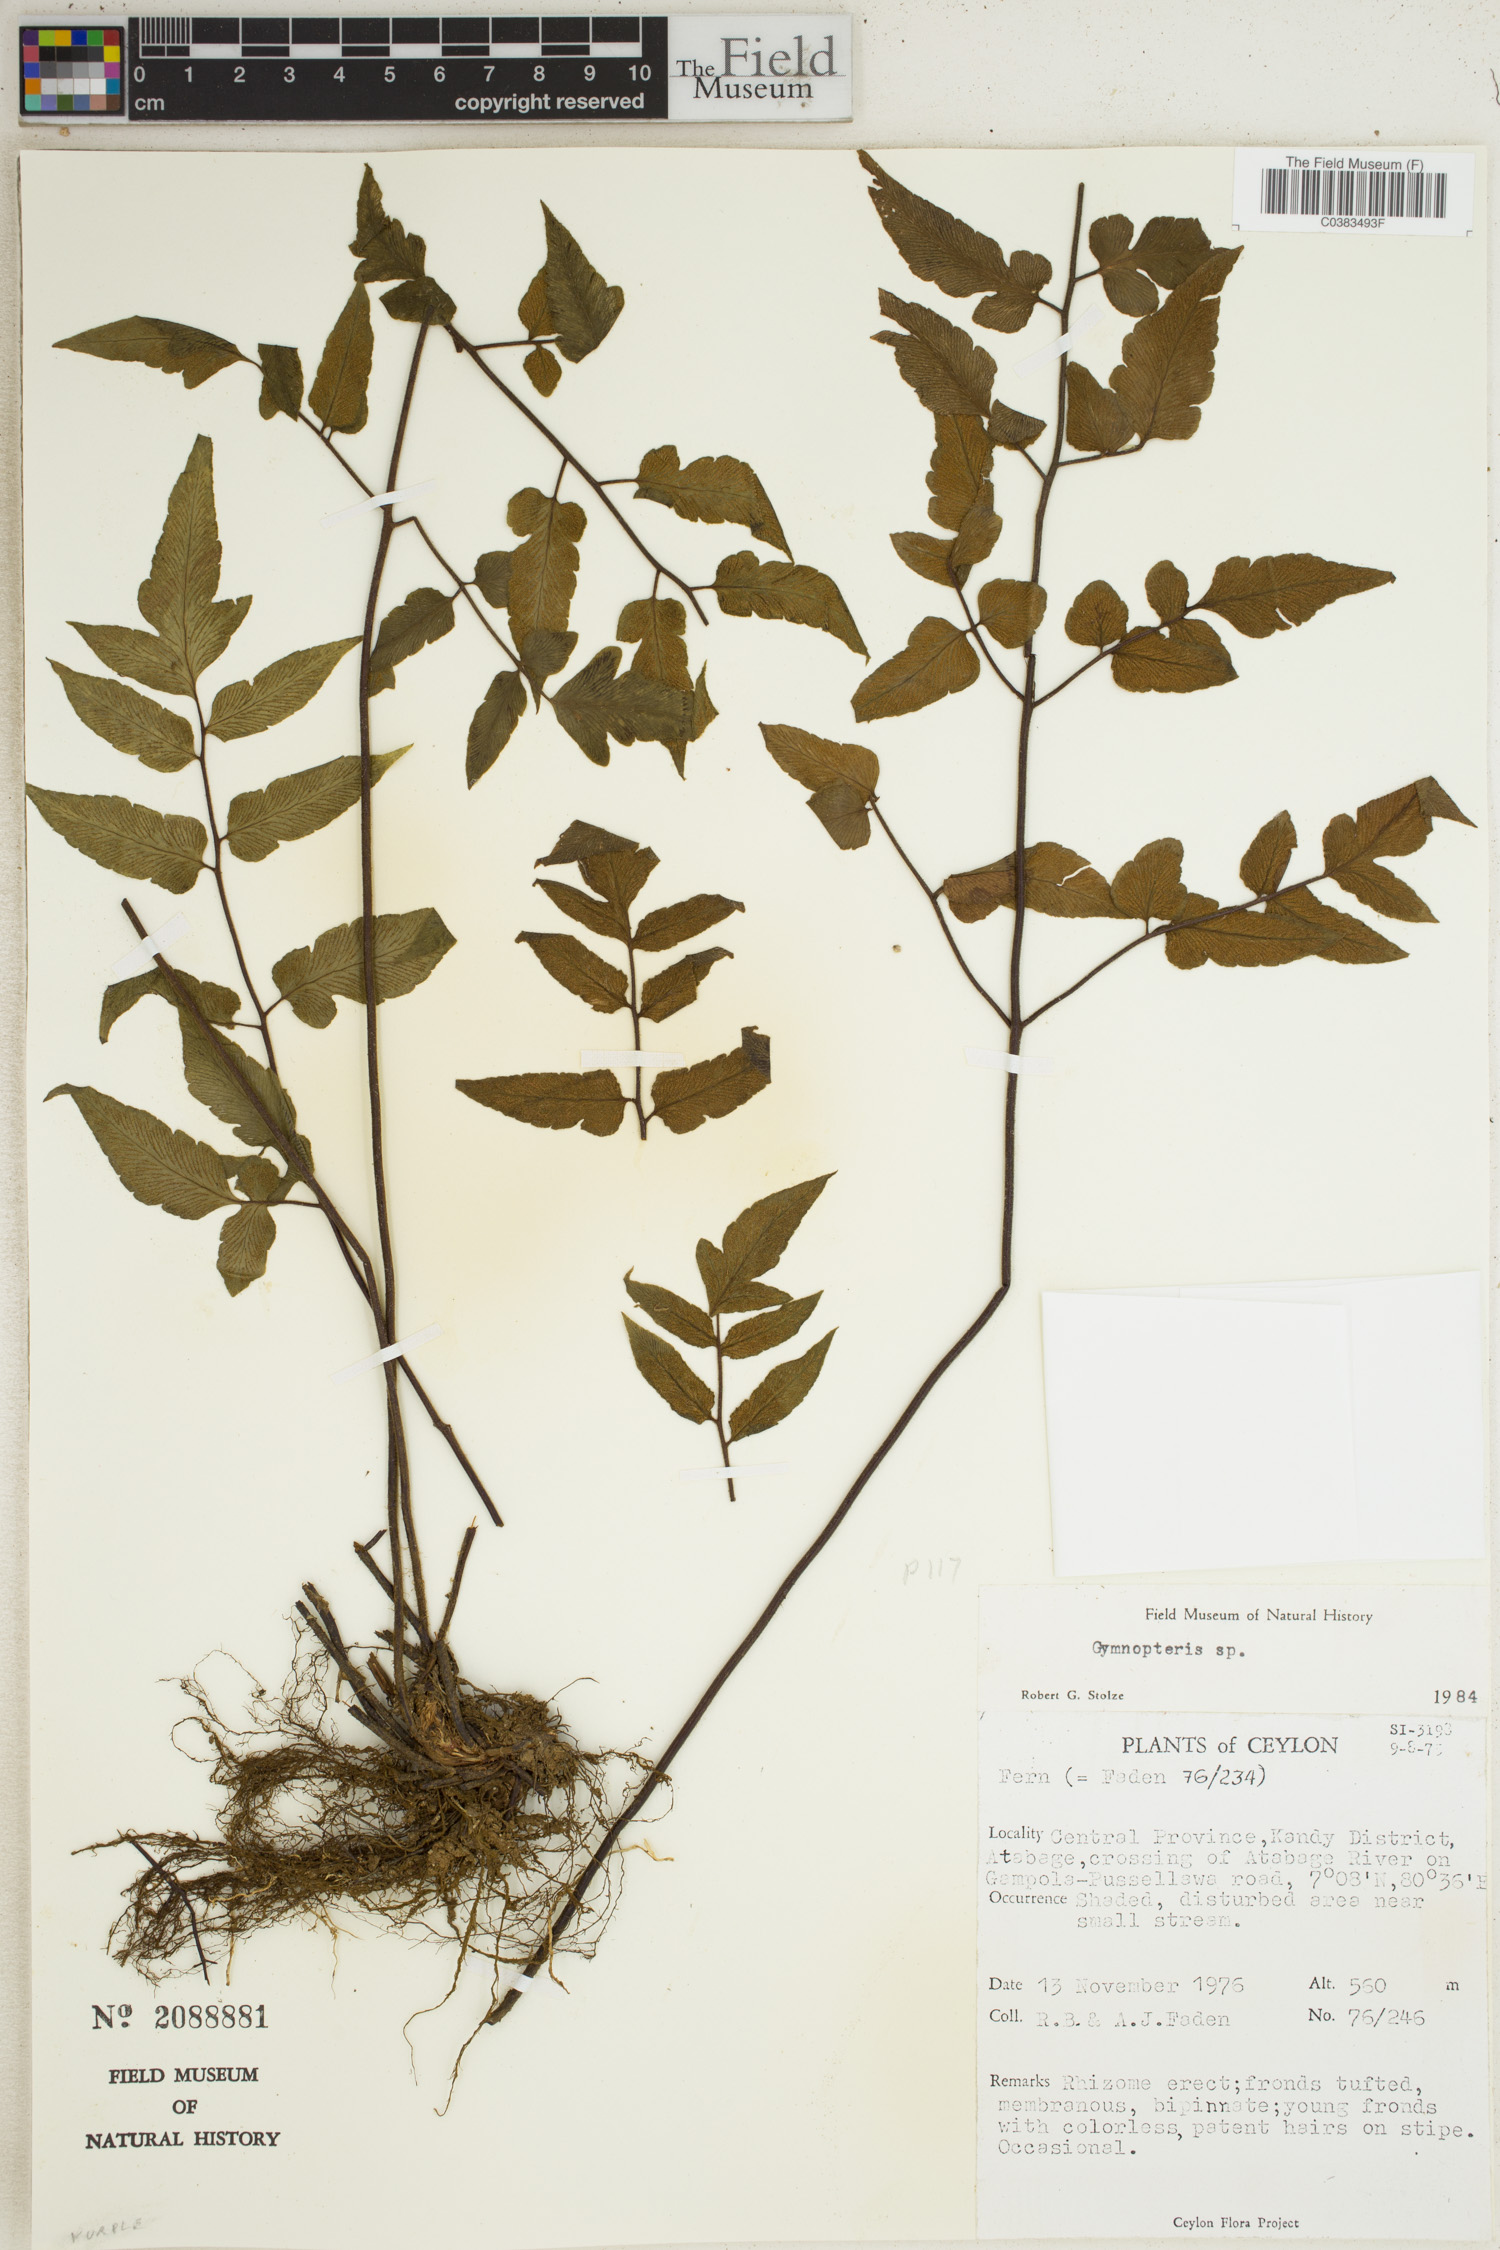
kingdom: Plantae
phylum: Tracheophyta
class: Polypodiopsida
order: Polypodiales
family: Pteridaceae
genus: Hemionitis
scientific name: Hemionitis
